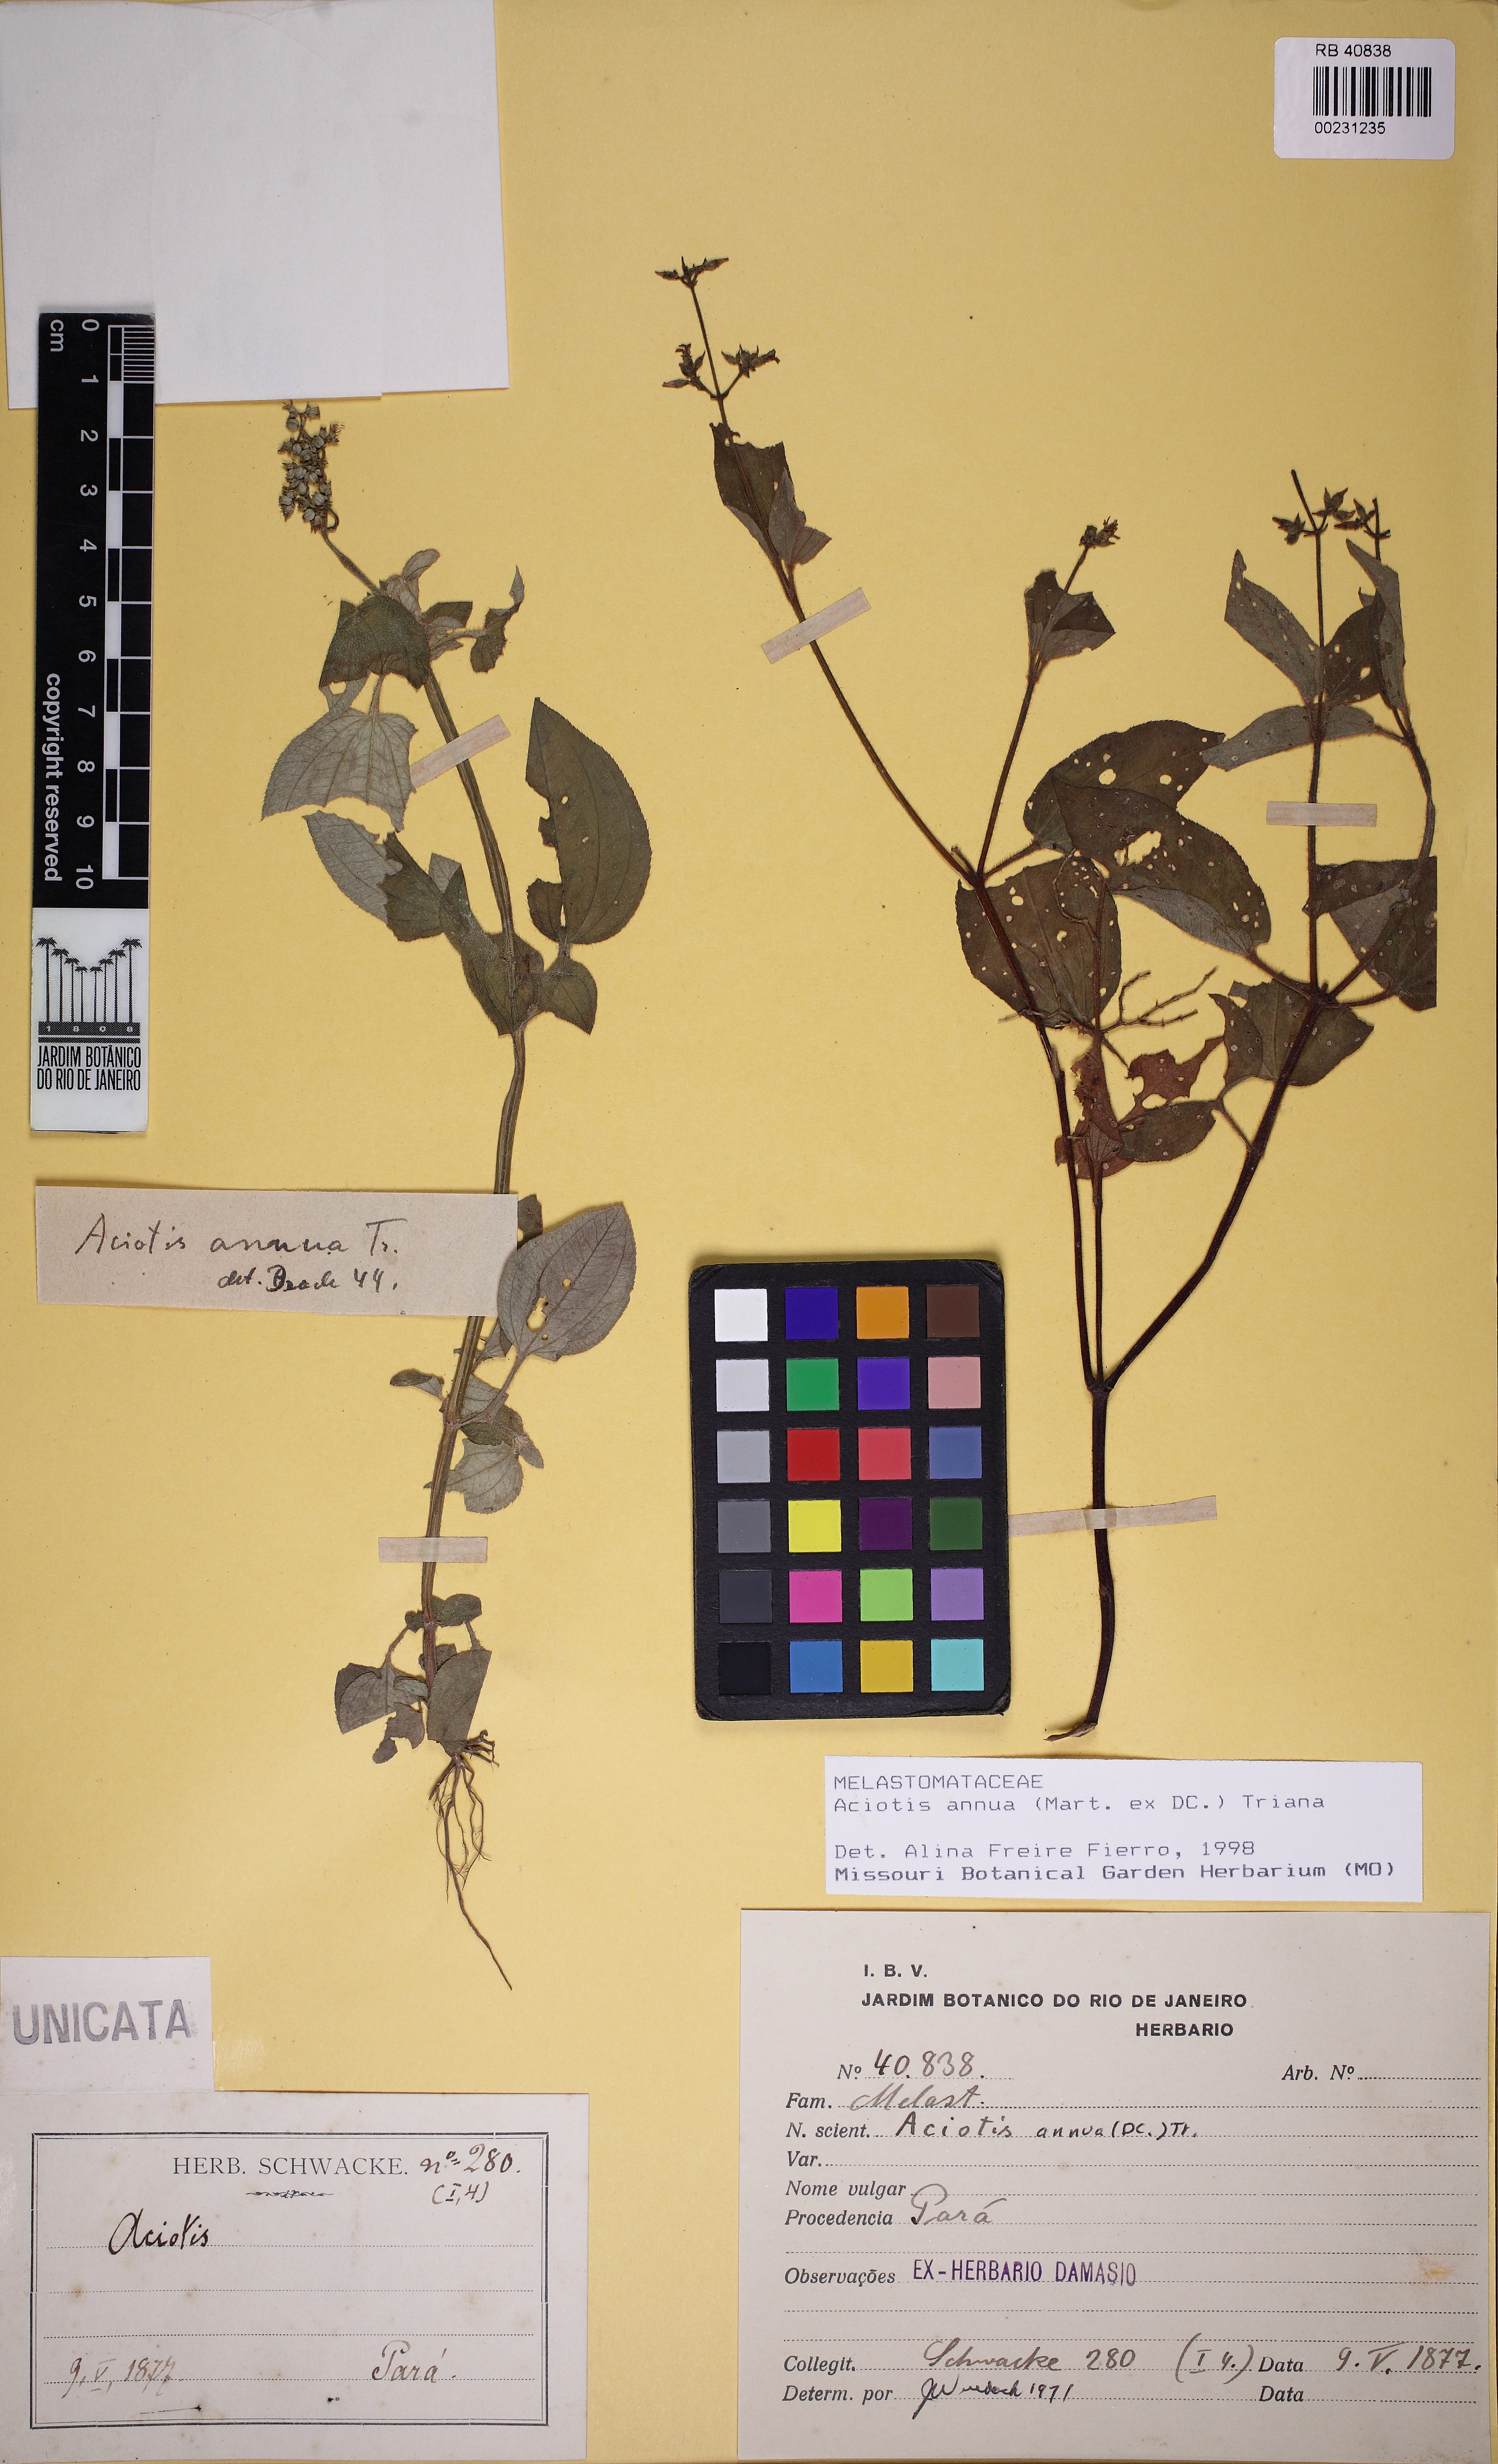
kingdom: Plantae
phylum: Tracheophyta
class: Magnoliopsida
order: Myrtales
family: Melastomataceae
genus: Aciotis
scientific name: Aciotis annua
